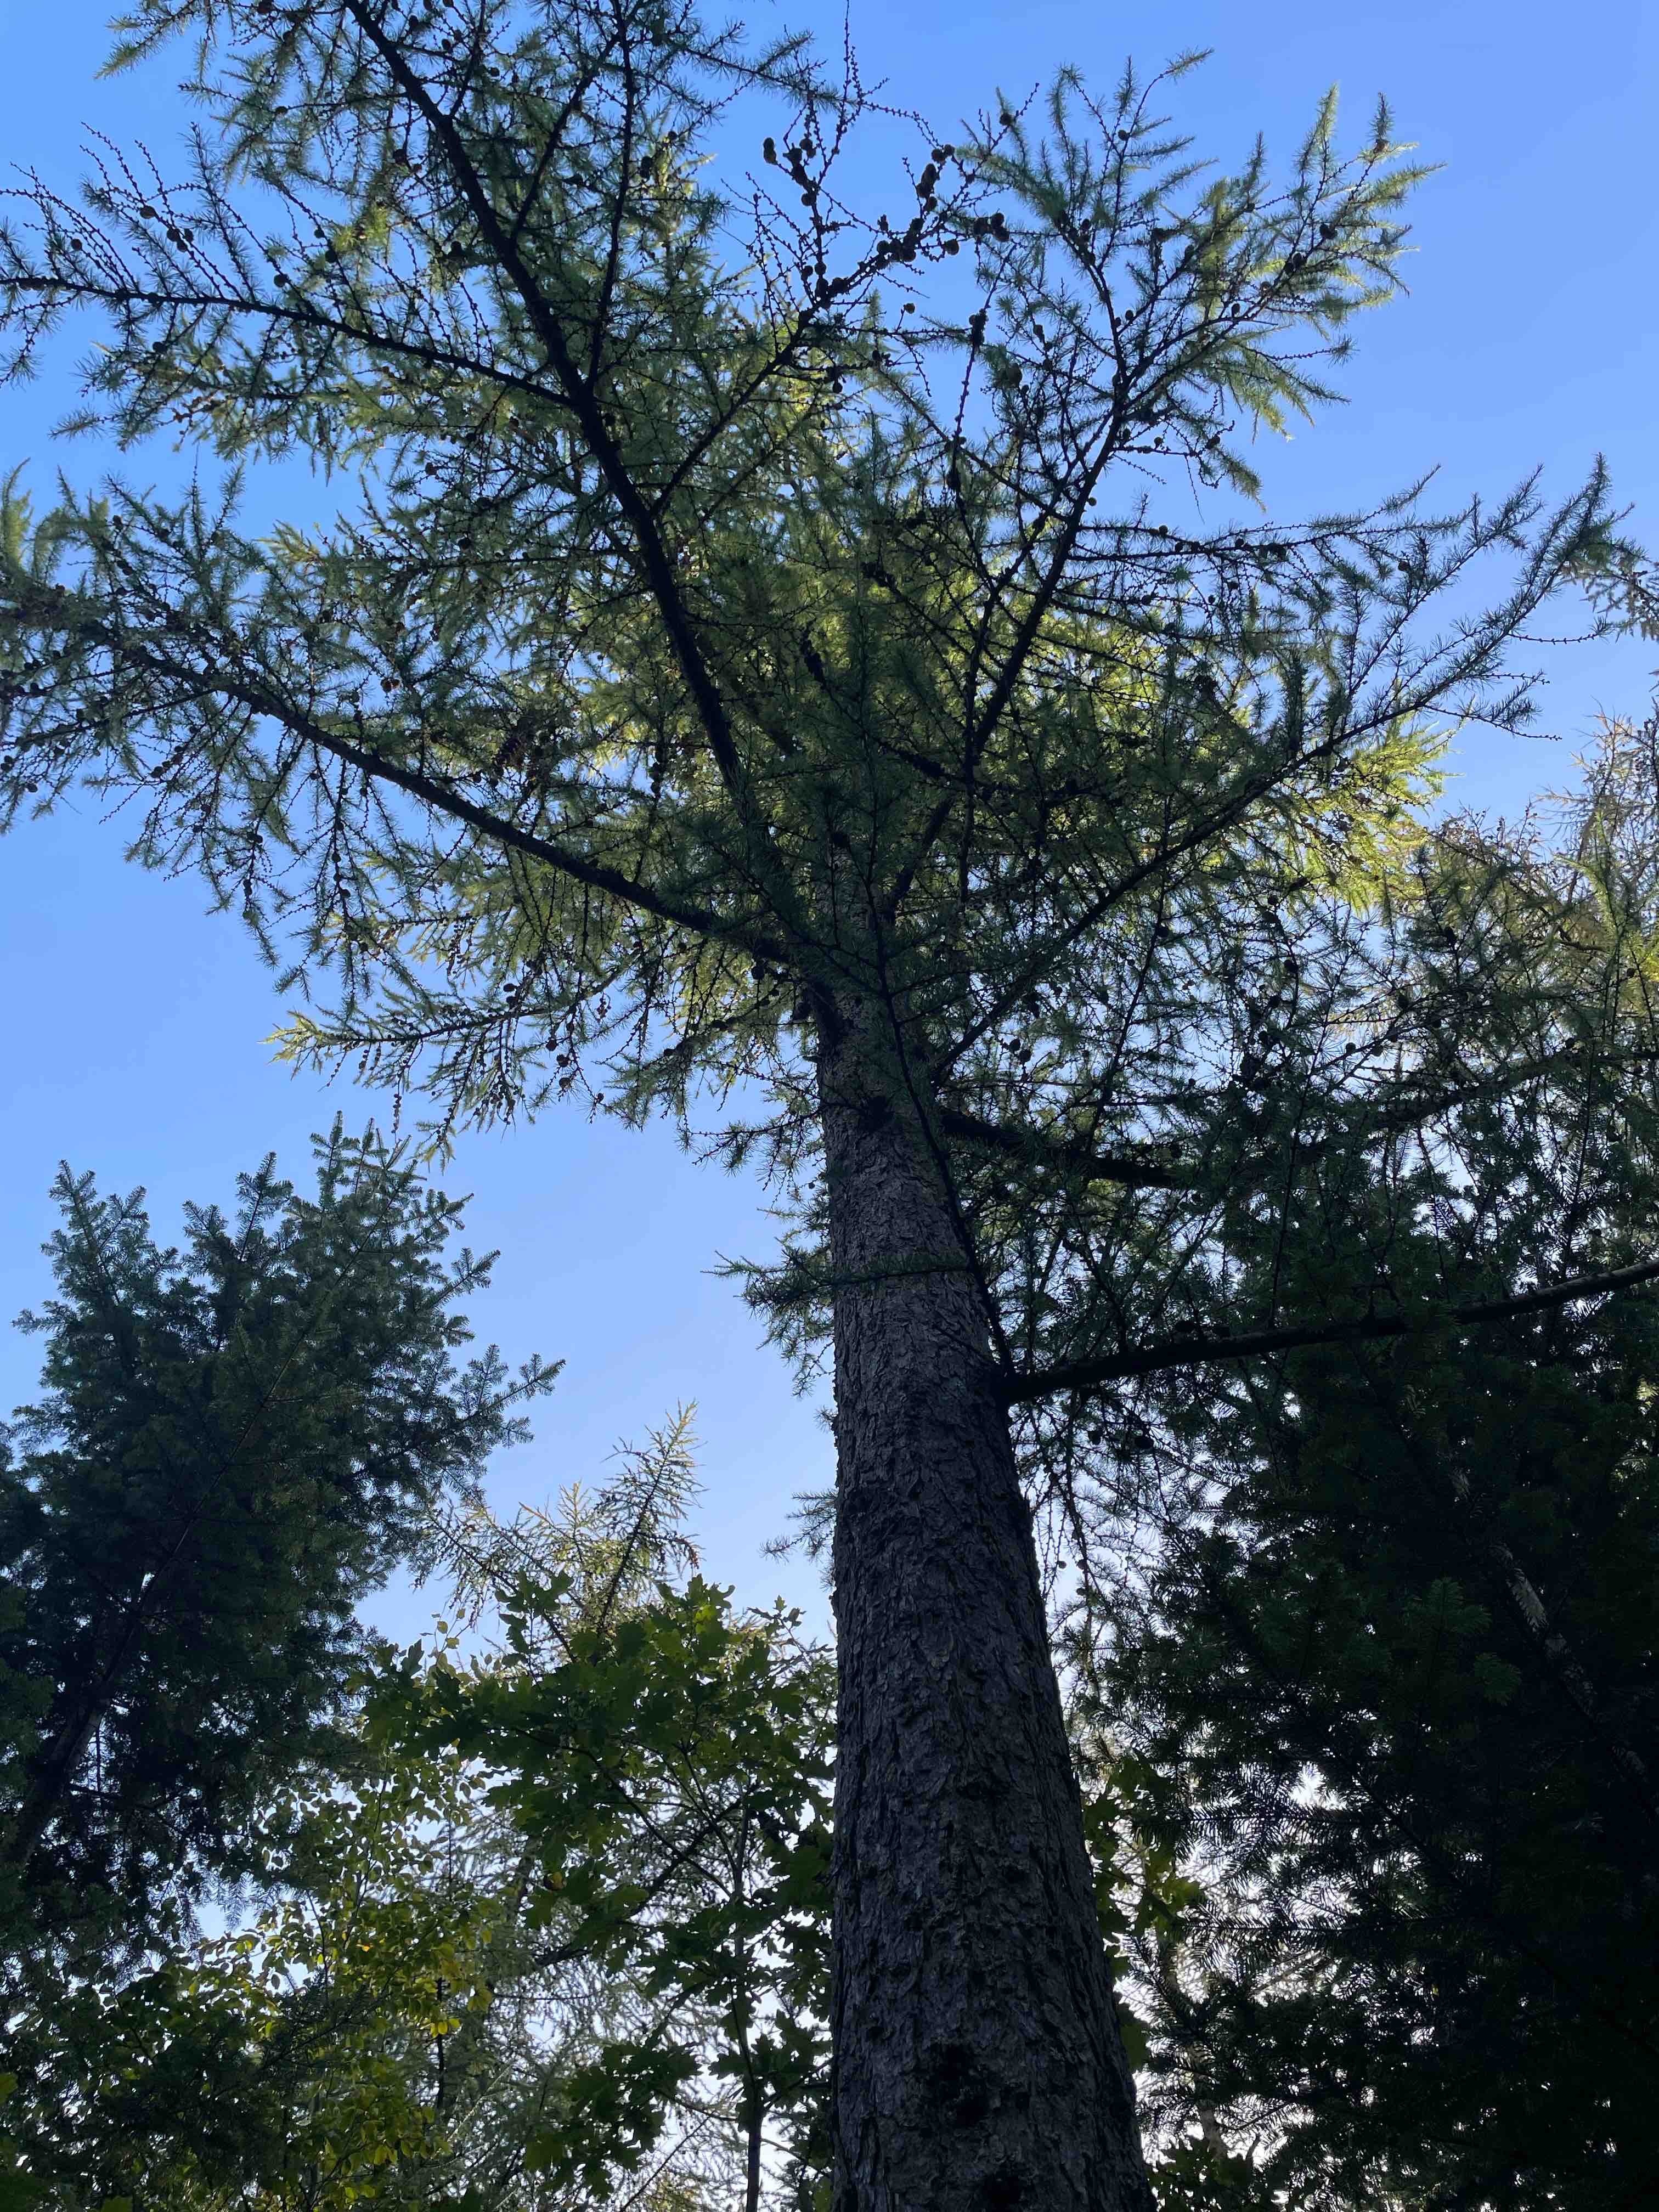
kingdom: Fungi
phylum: Basidiomycota
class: Agaricomycetes
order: Boletales
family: Suillaceae
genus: Suillus
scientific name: Suillus grevillei
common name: lærke-slimrørhat
